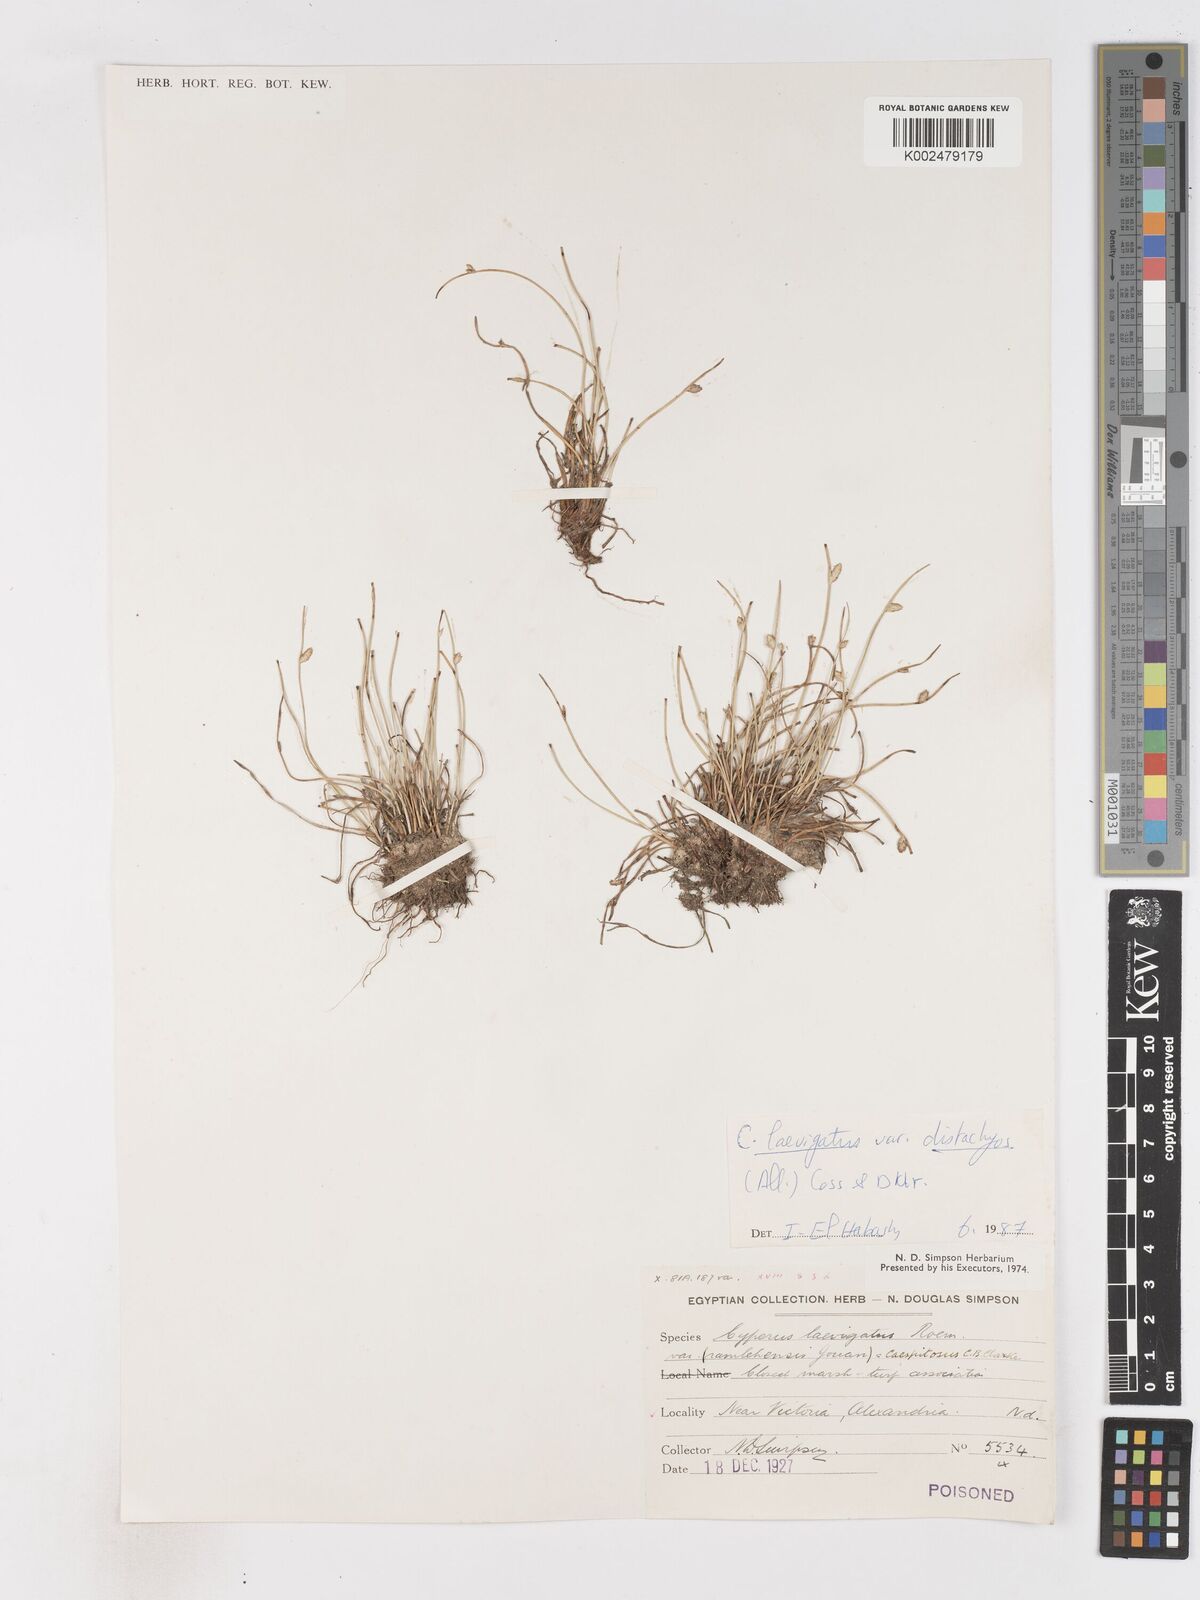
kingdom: Plantae
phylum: Tracheophyta
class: Liliopsida
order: Poales
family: Cyperaceae
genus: Cyperus
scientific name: Cyperus laevigatus
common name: Smooth flat sedge
